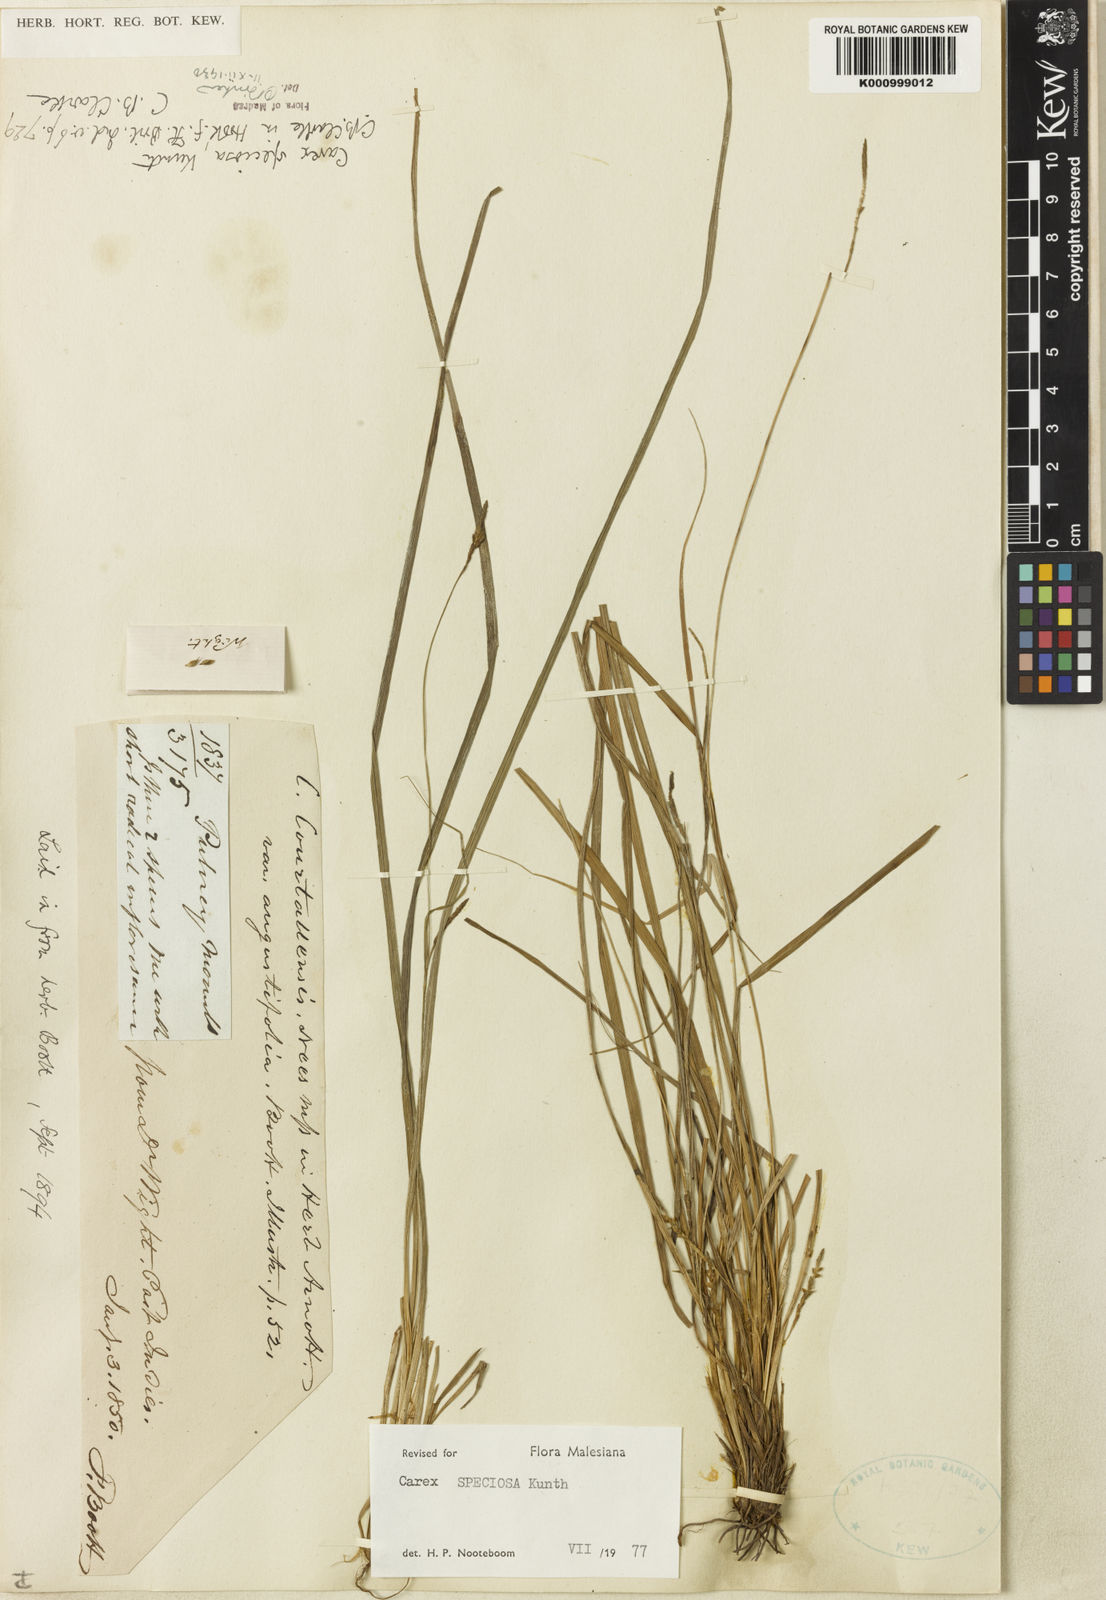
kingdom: Plantae
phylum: Tracheophyta
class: Liliopsida
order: Poales
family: Cyperaceae
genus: Carex
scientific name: Carex speciosa
